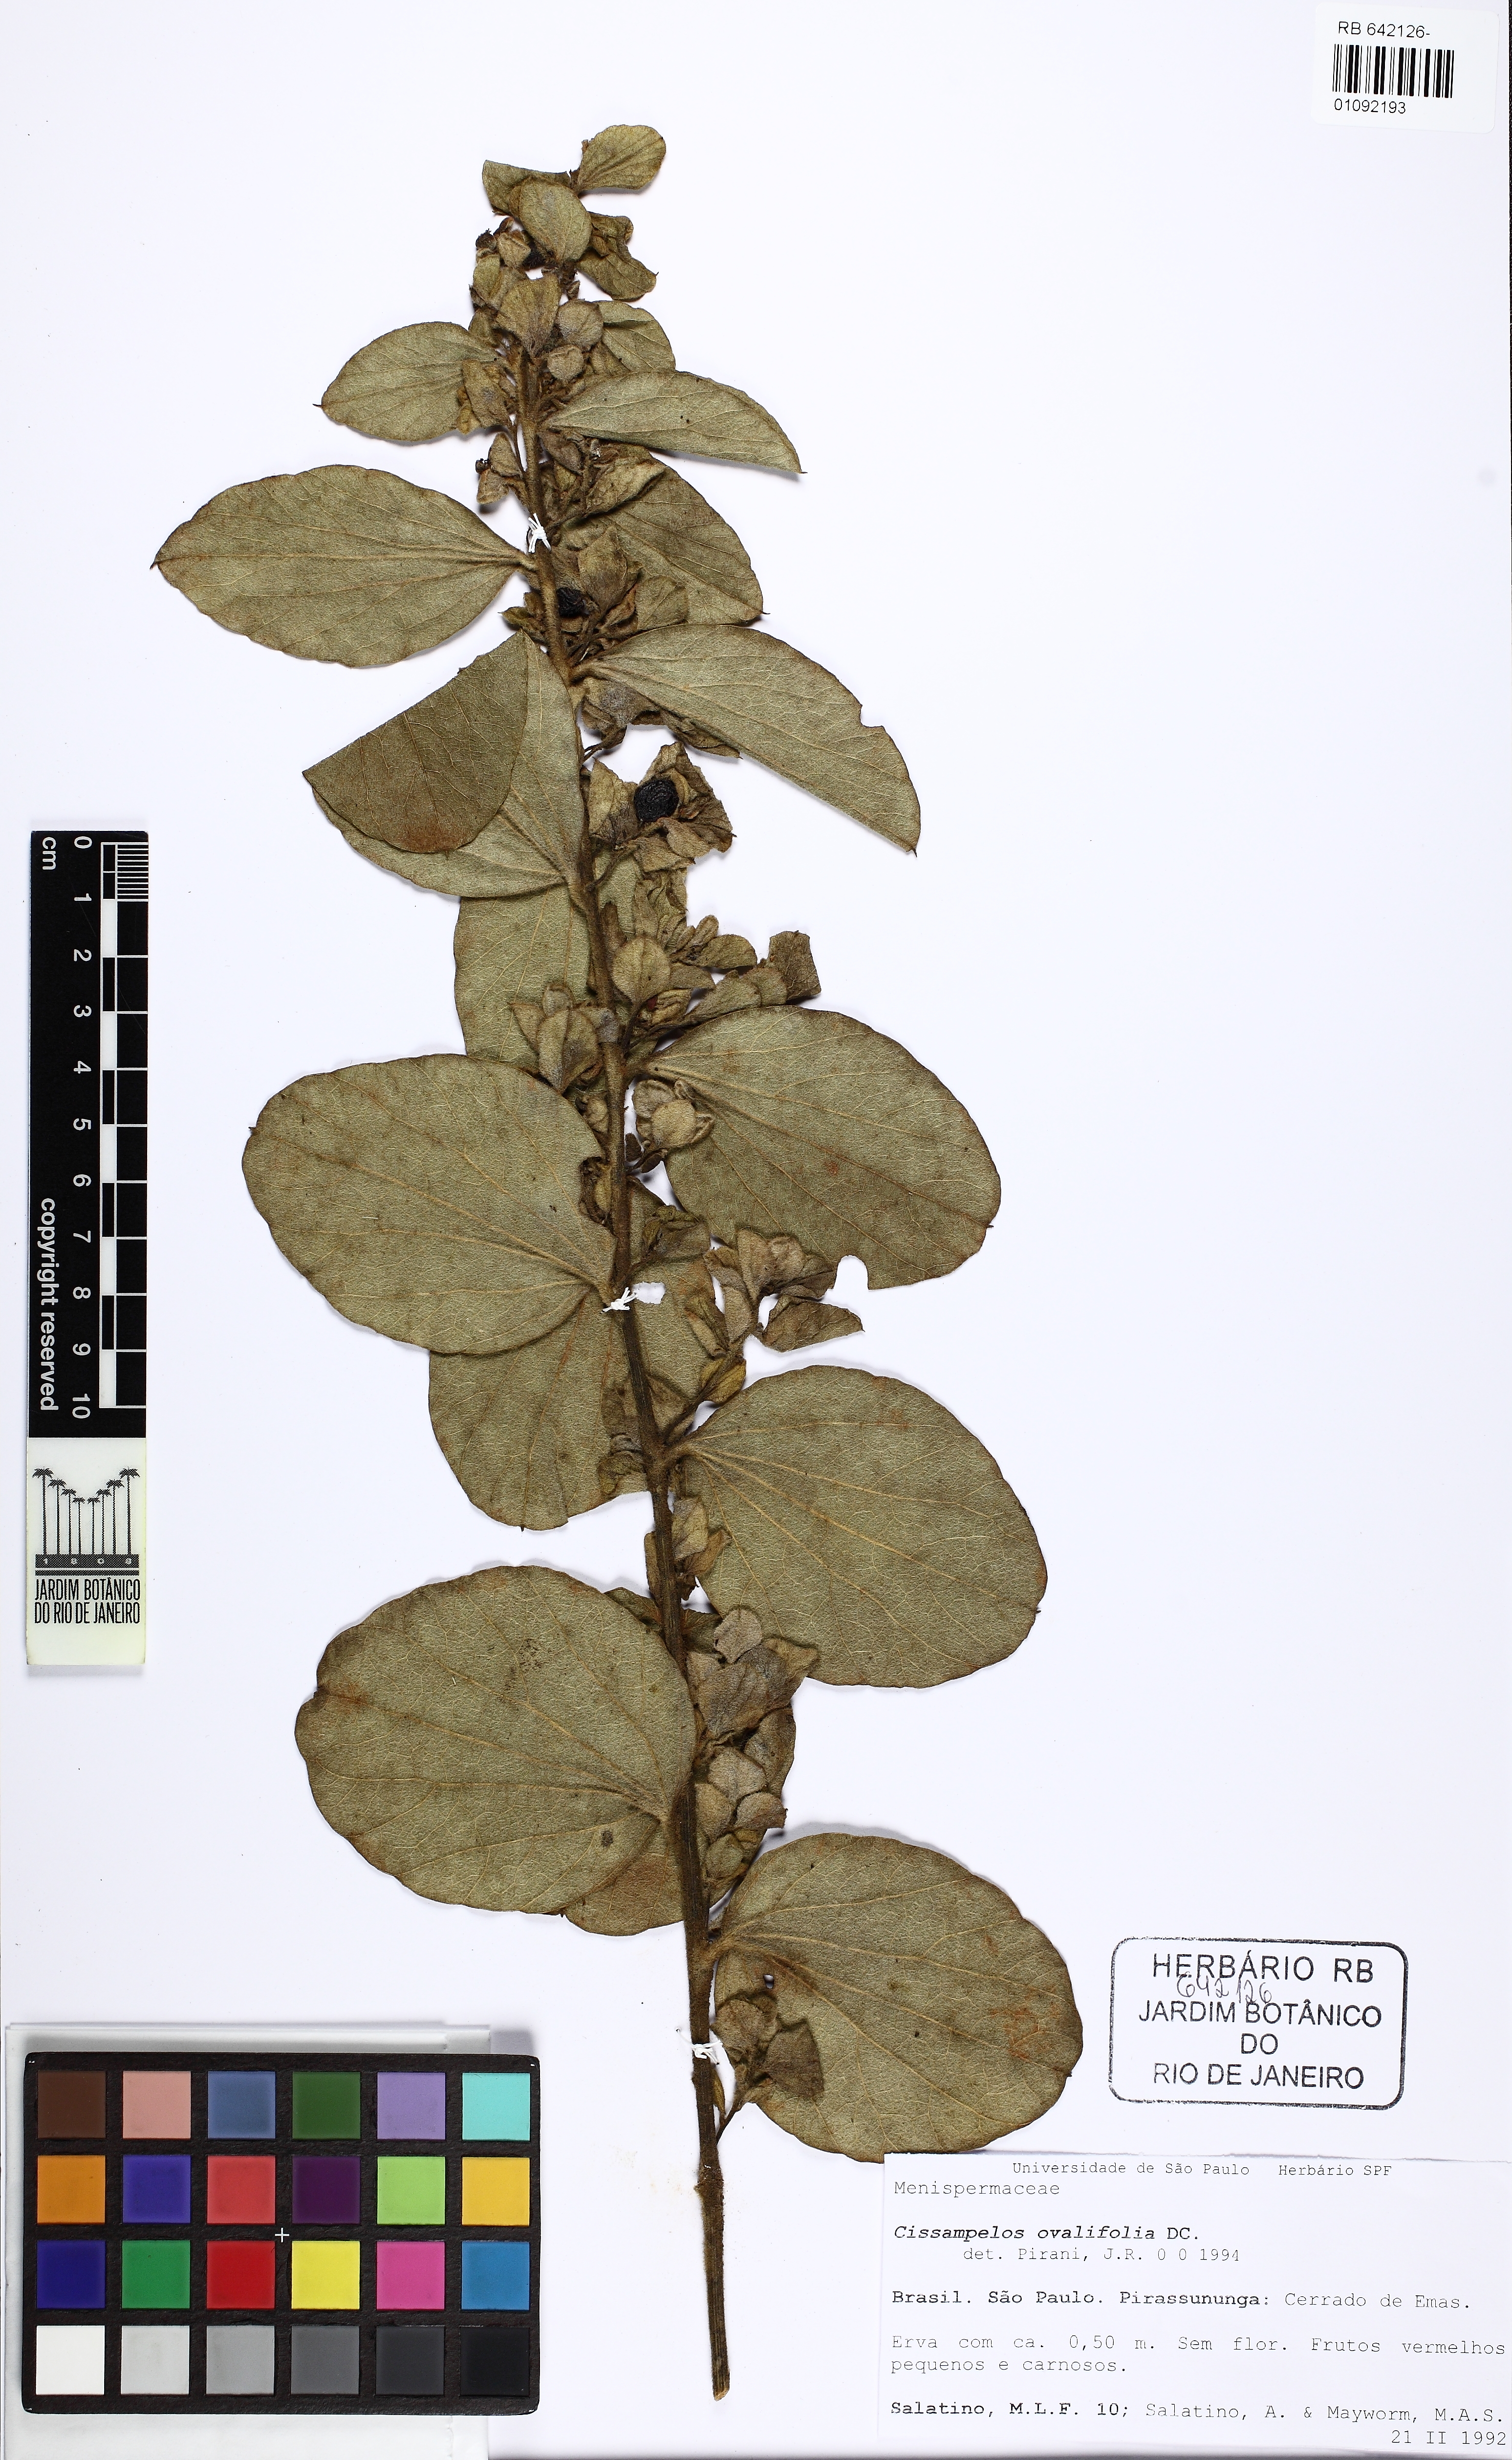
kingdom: Plantae
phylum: Tracheophyta
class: Magnoliopsida
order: Ranunculales
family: Menispermaceae
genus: Cissampelos
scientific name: Cissampelos ovalifolia
